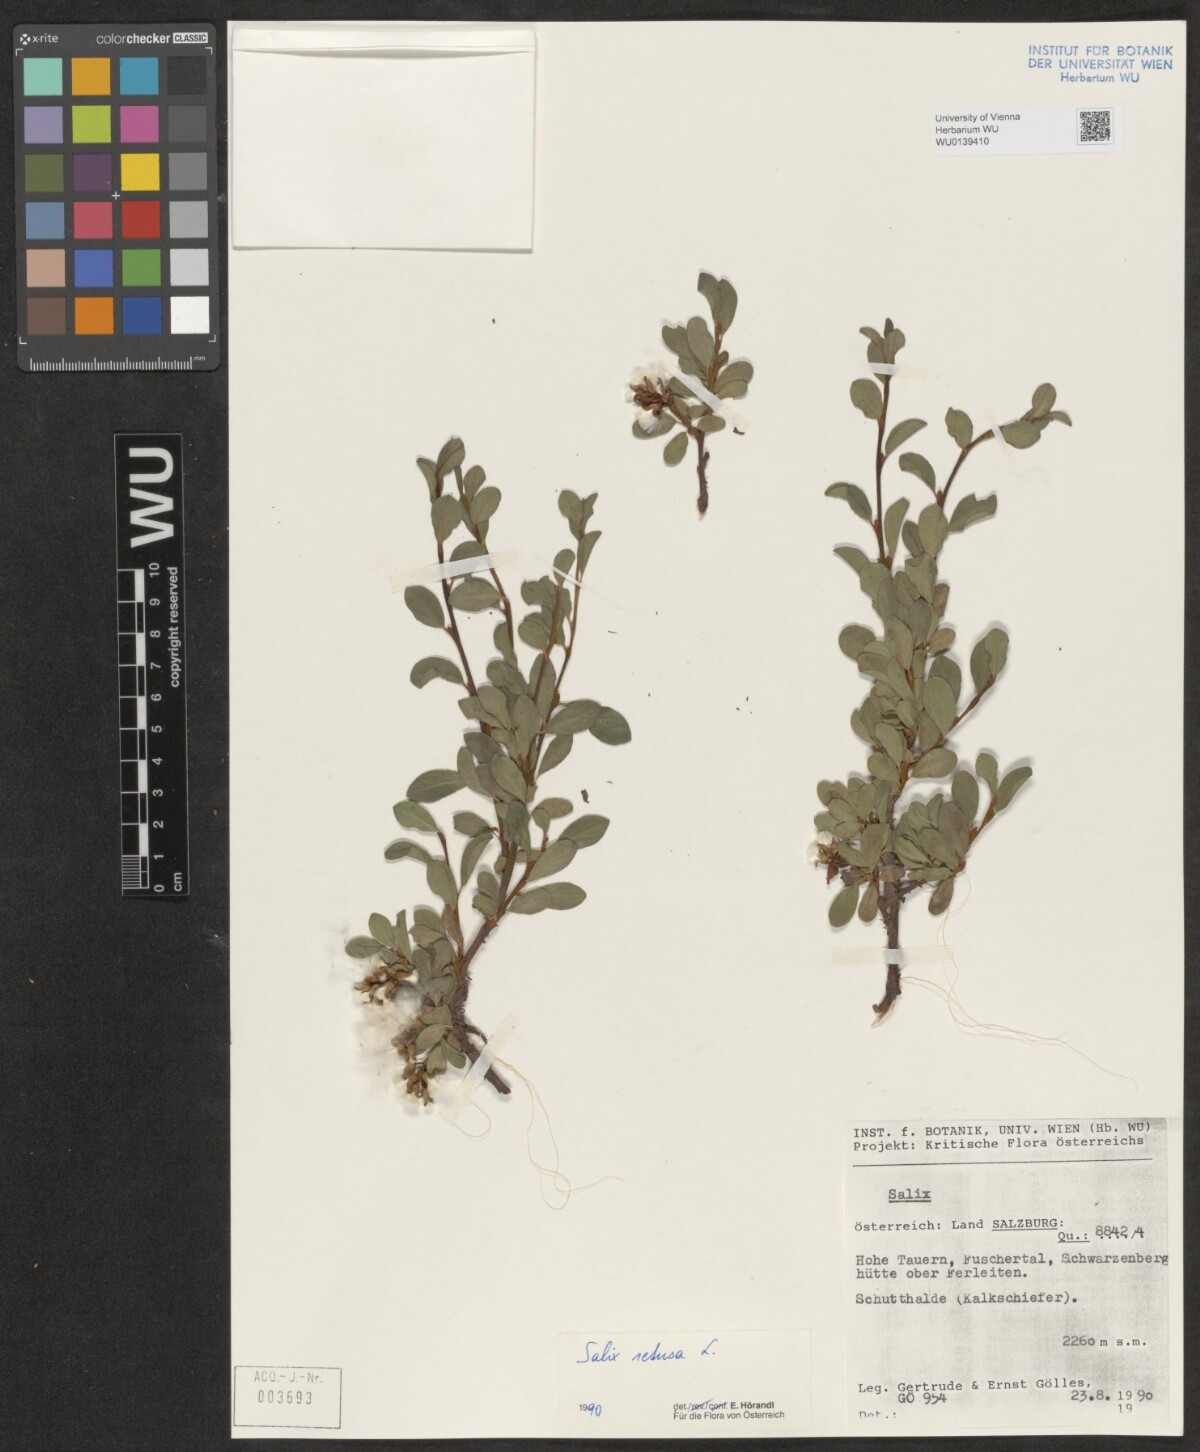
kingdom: Plantae
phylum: Tracheophyta
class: Magnoliopsida
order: Malpighiales
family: Salicaceae
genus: Salix
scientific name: Salix retusa
